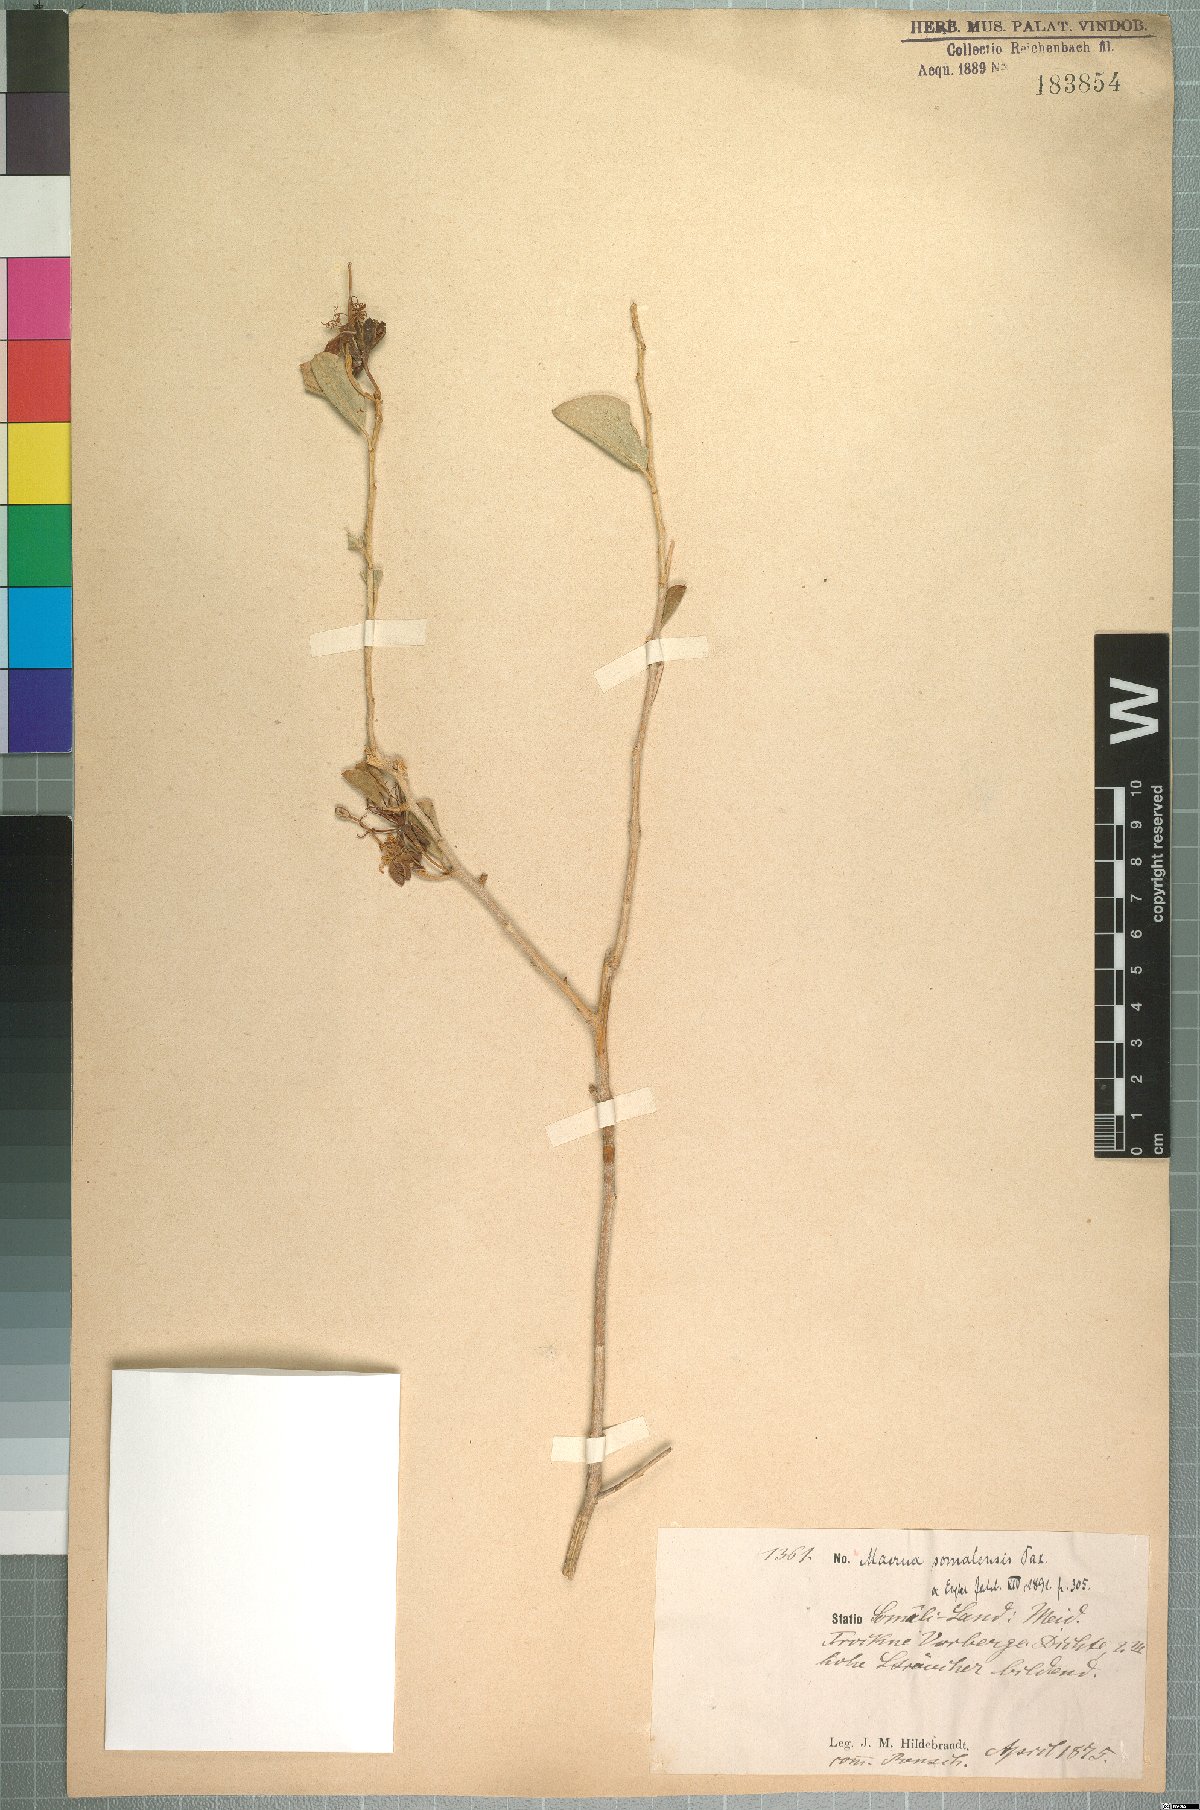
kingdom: Plantae
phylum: Tracheophyta
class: Magnoliopsida
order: Brassicales
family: Capparaceae
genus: Maerua
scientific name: Maerua somalensis
